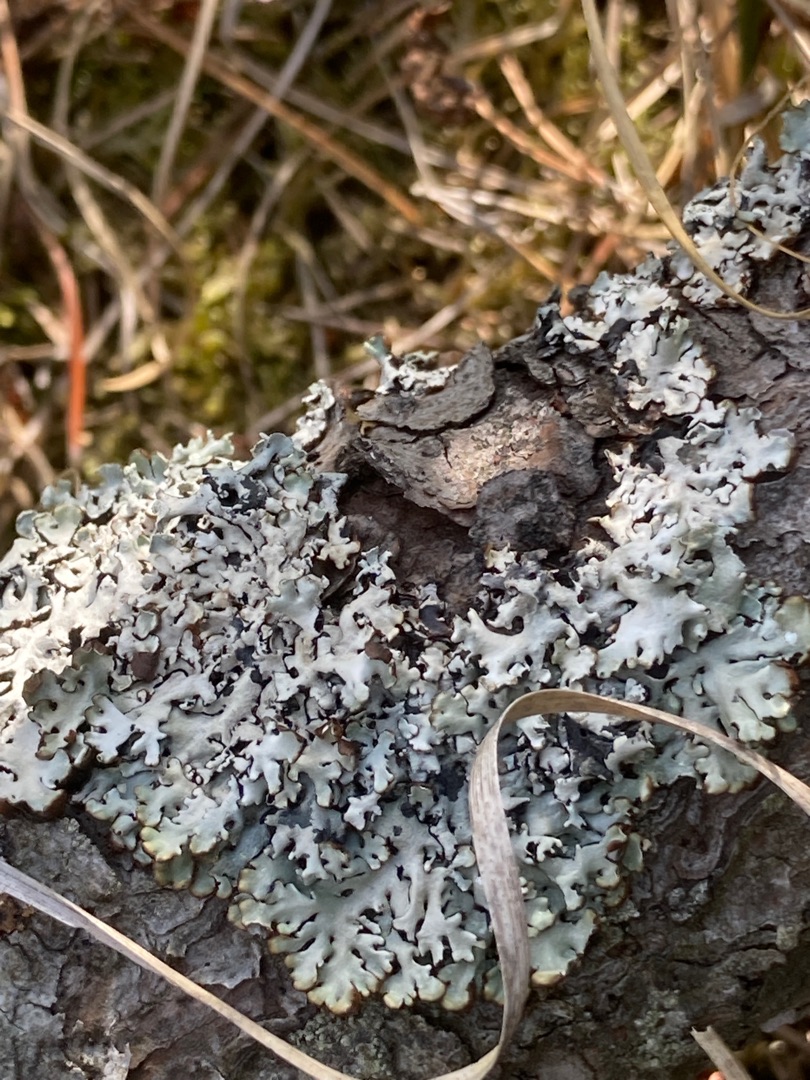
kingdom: Fungi
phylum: Ascomycota
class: Lecanoromycetes
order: Lecanorales
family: Parmeliaceae
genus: Hypogymnia
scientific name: Hypogymnia physodes
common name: Almindelig kvistlav
